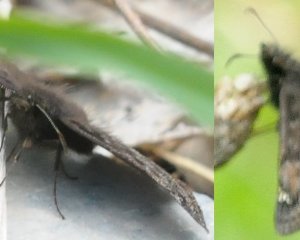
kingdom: Animalia
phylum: Arthropoda
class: Insecta
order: Lepidoptera
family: Hesperiidae
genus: Gesta
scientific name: Gesta
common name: Juvenal's Duskywing
